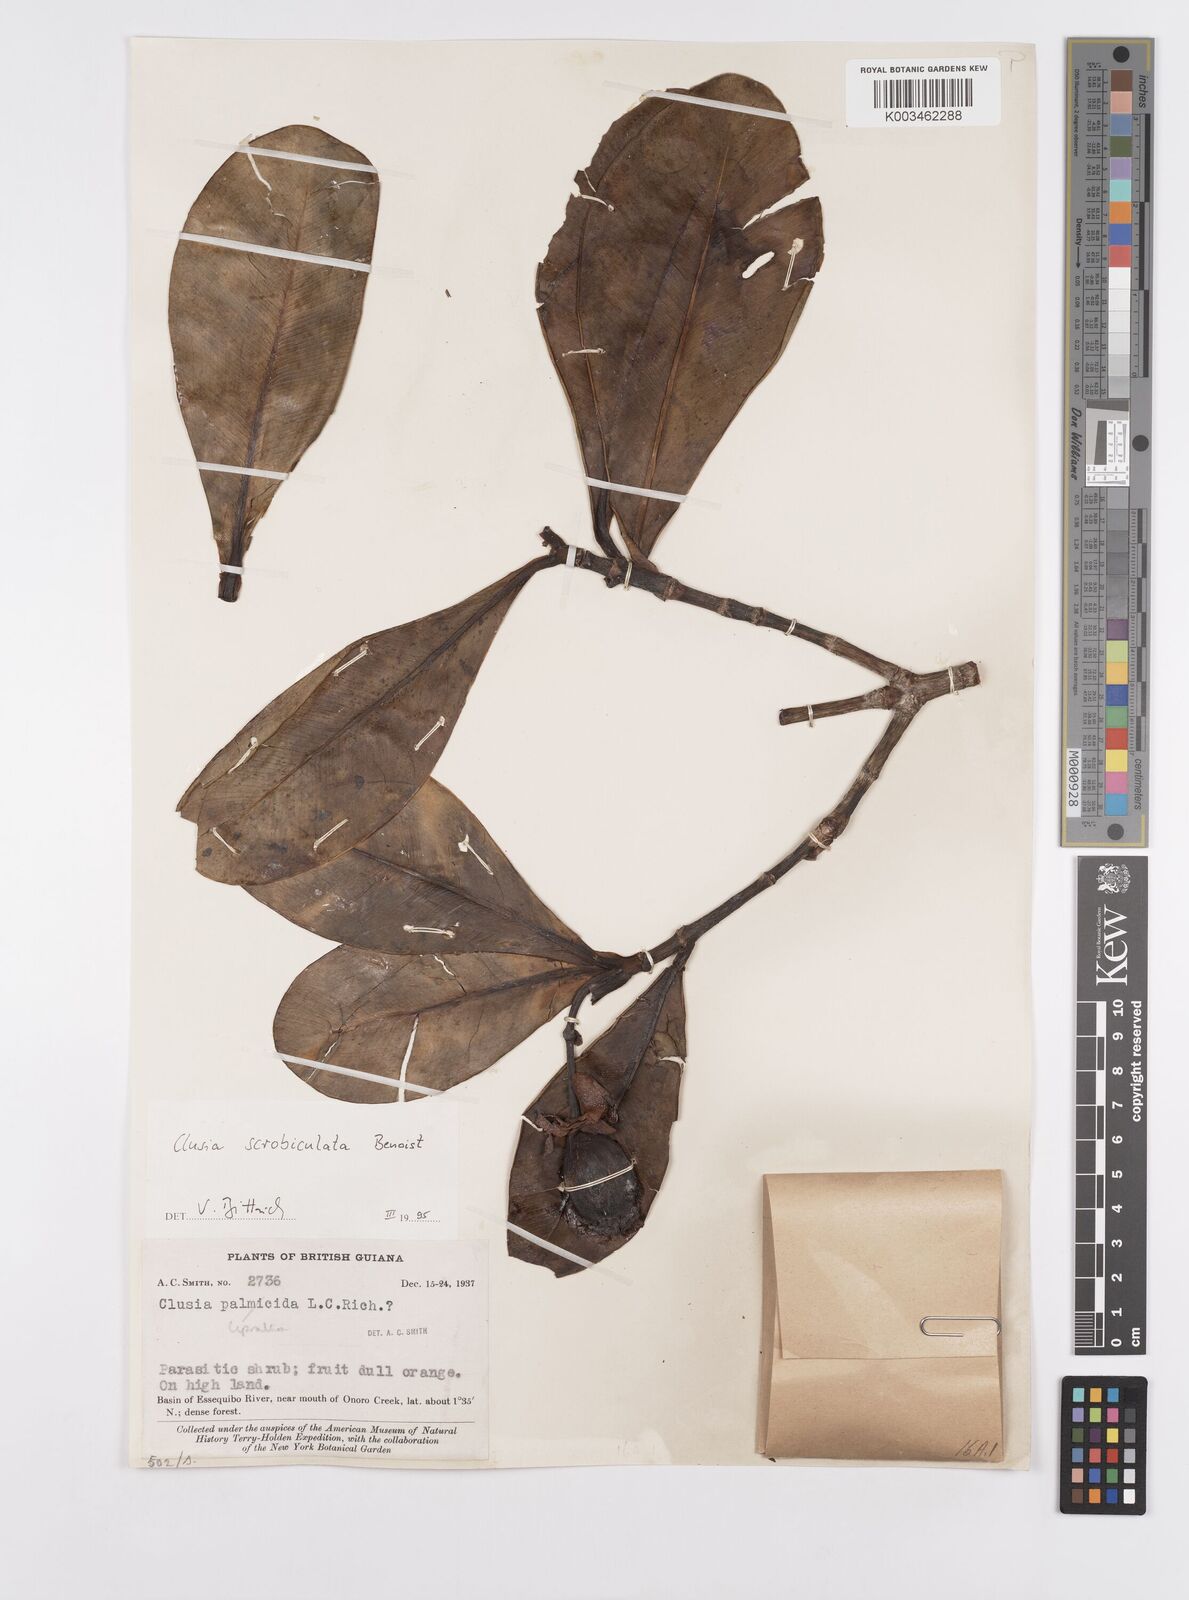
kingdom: Plantae
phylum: Tracheophyta
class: Magnoliopsida
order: Malpighiales
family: Clusiaceae
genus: Clusia
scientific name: Clusia scrobiculata
